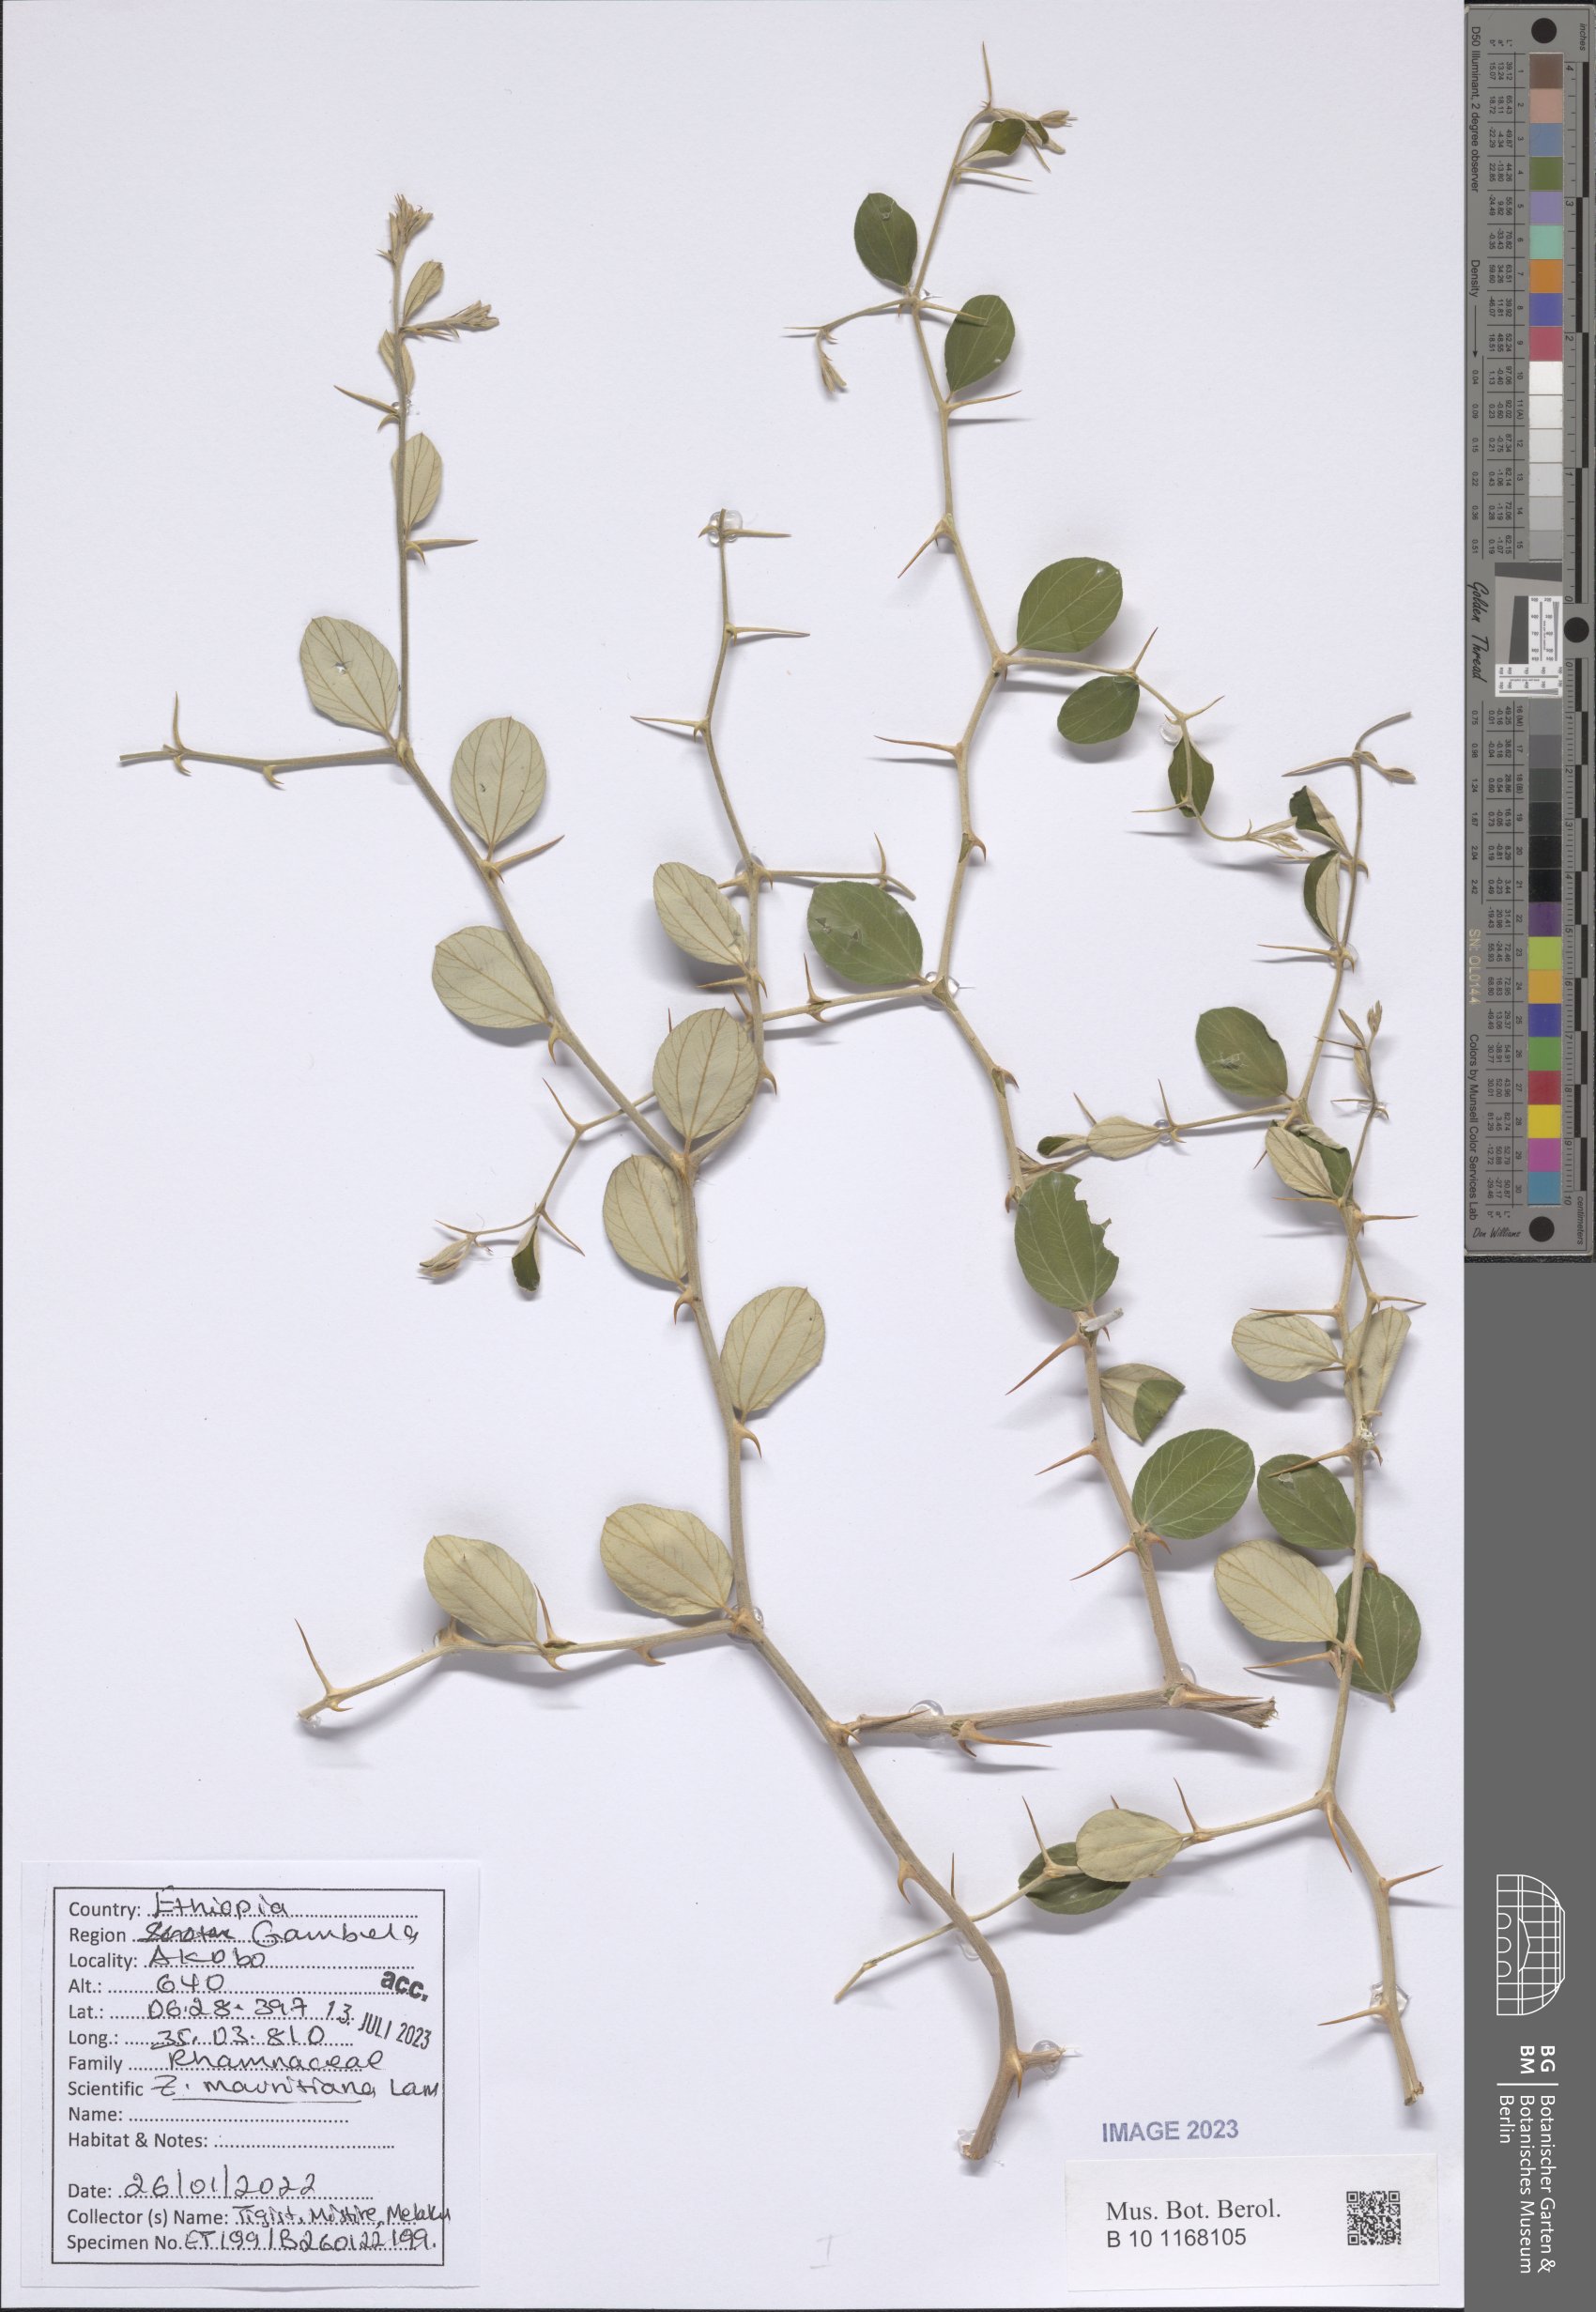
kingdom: Plantae
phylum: Tracheophyta
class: Magnoliopsida
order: Rosales
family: Rhamnaceae
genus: Ziziphus
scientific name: Ziziphus mauritiana
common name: Indian jujube
